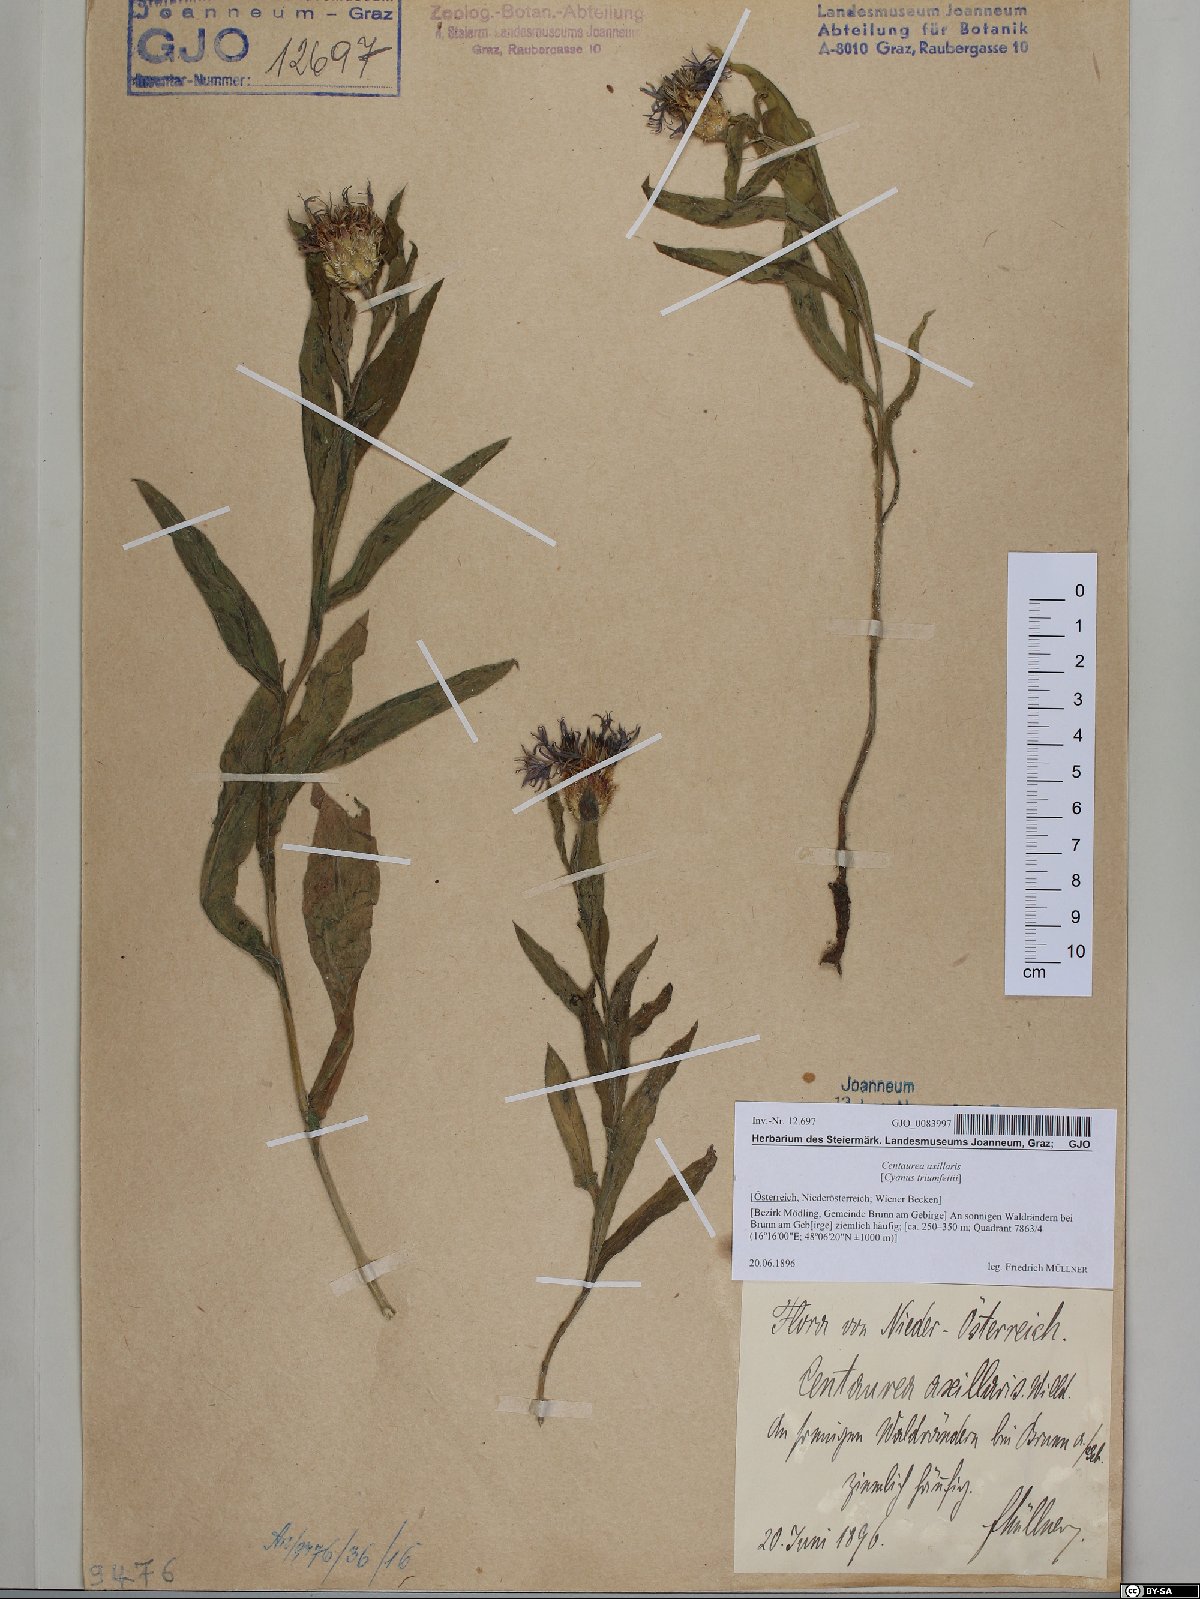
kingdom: Plantae
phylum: Tracheophyta
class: Magnoliopsida
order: Asterales
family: Asteraceae
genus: Centaurea
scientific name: Centaurea triumfettii
